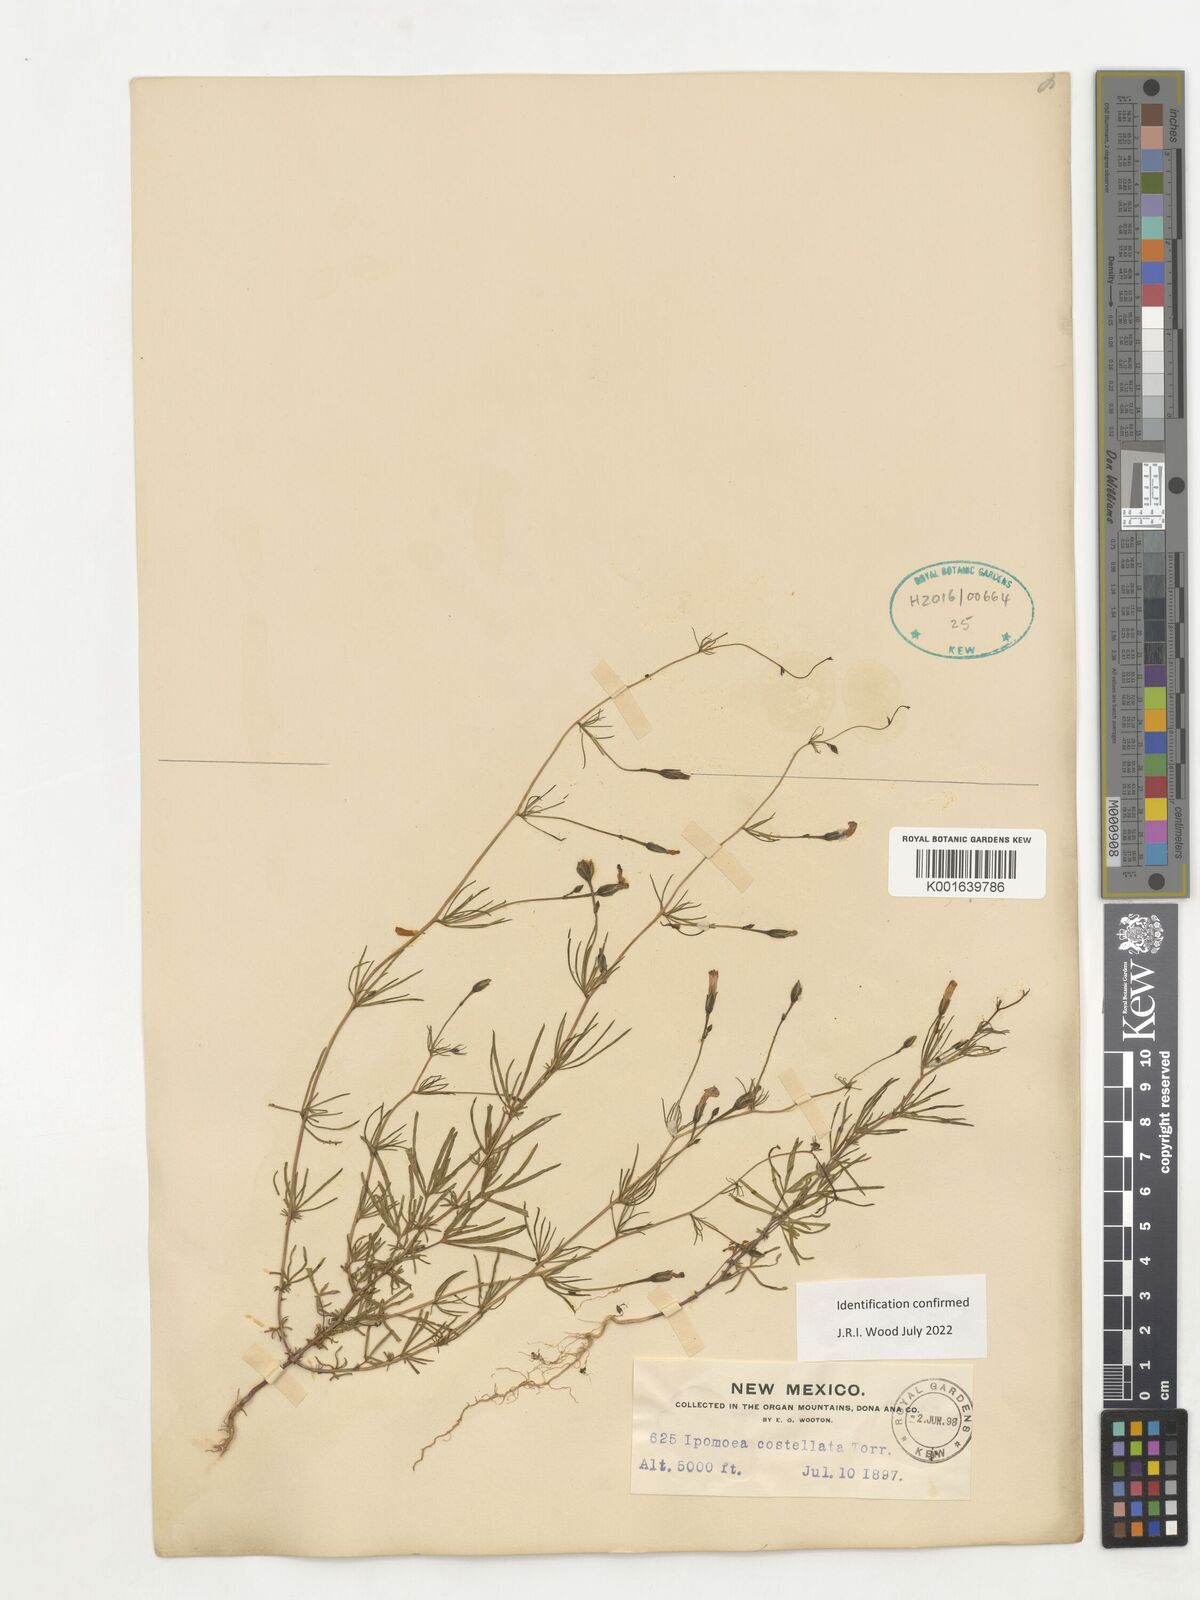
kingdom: Plantae
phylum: Tracheophyta
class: Magnoliopsida
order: Solanales
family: Convolvulaceae
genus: Ipomoea
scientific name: Ipomoea costellata
